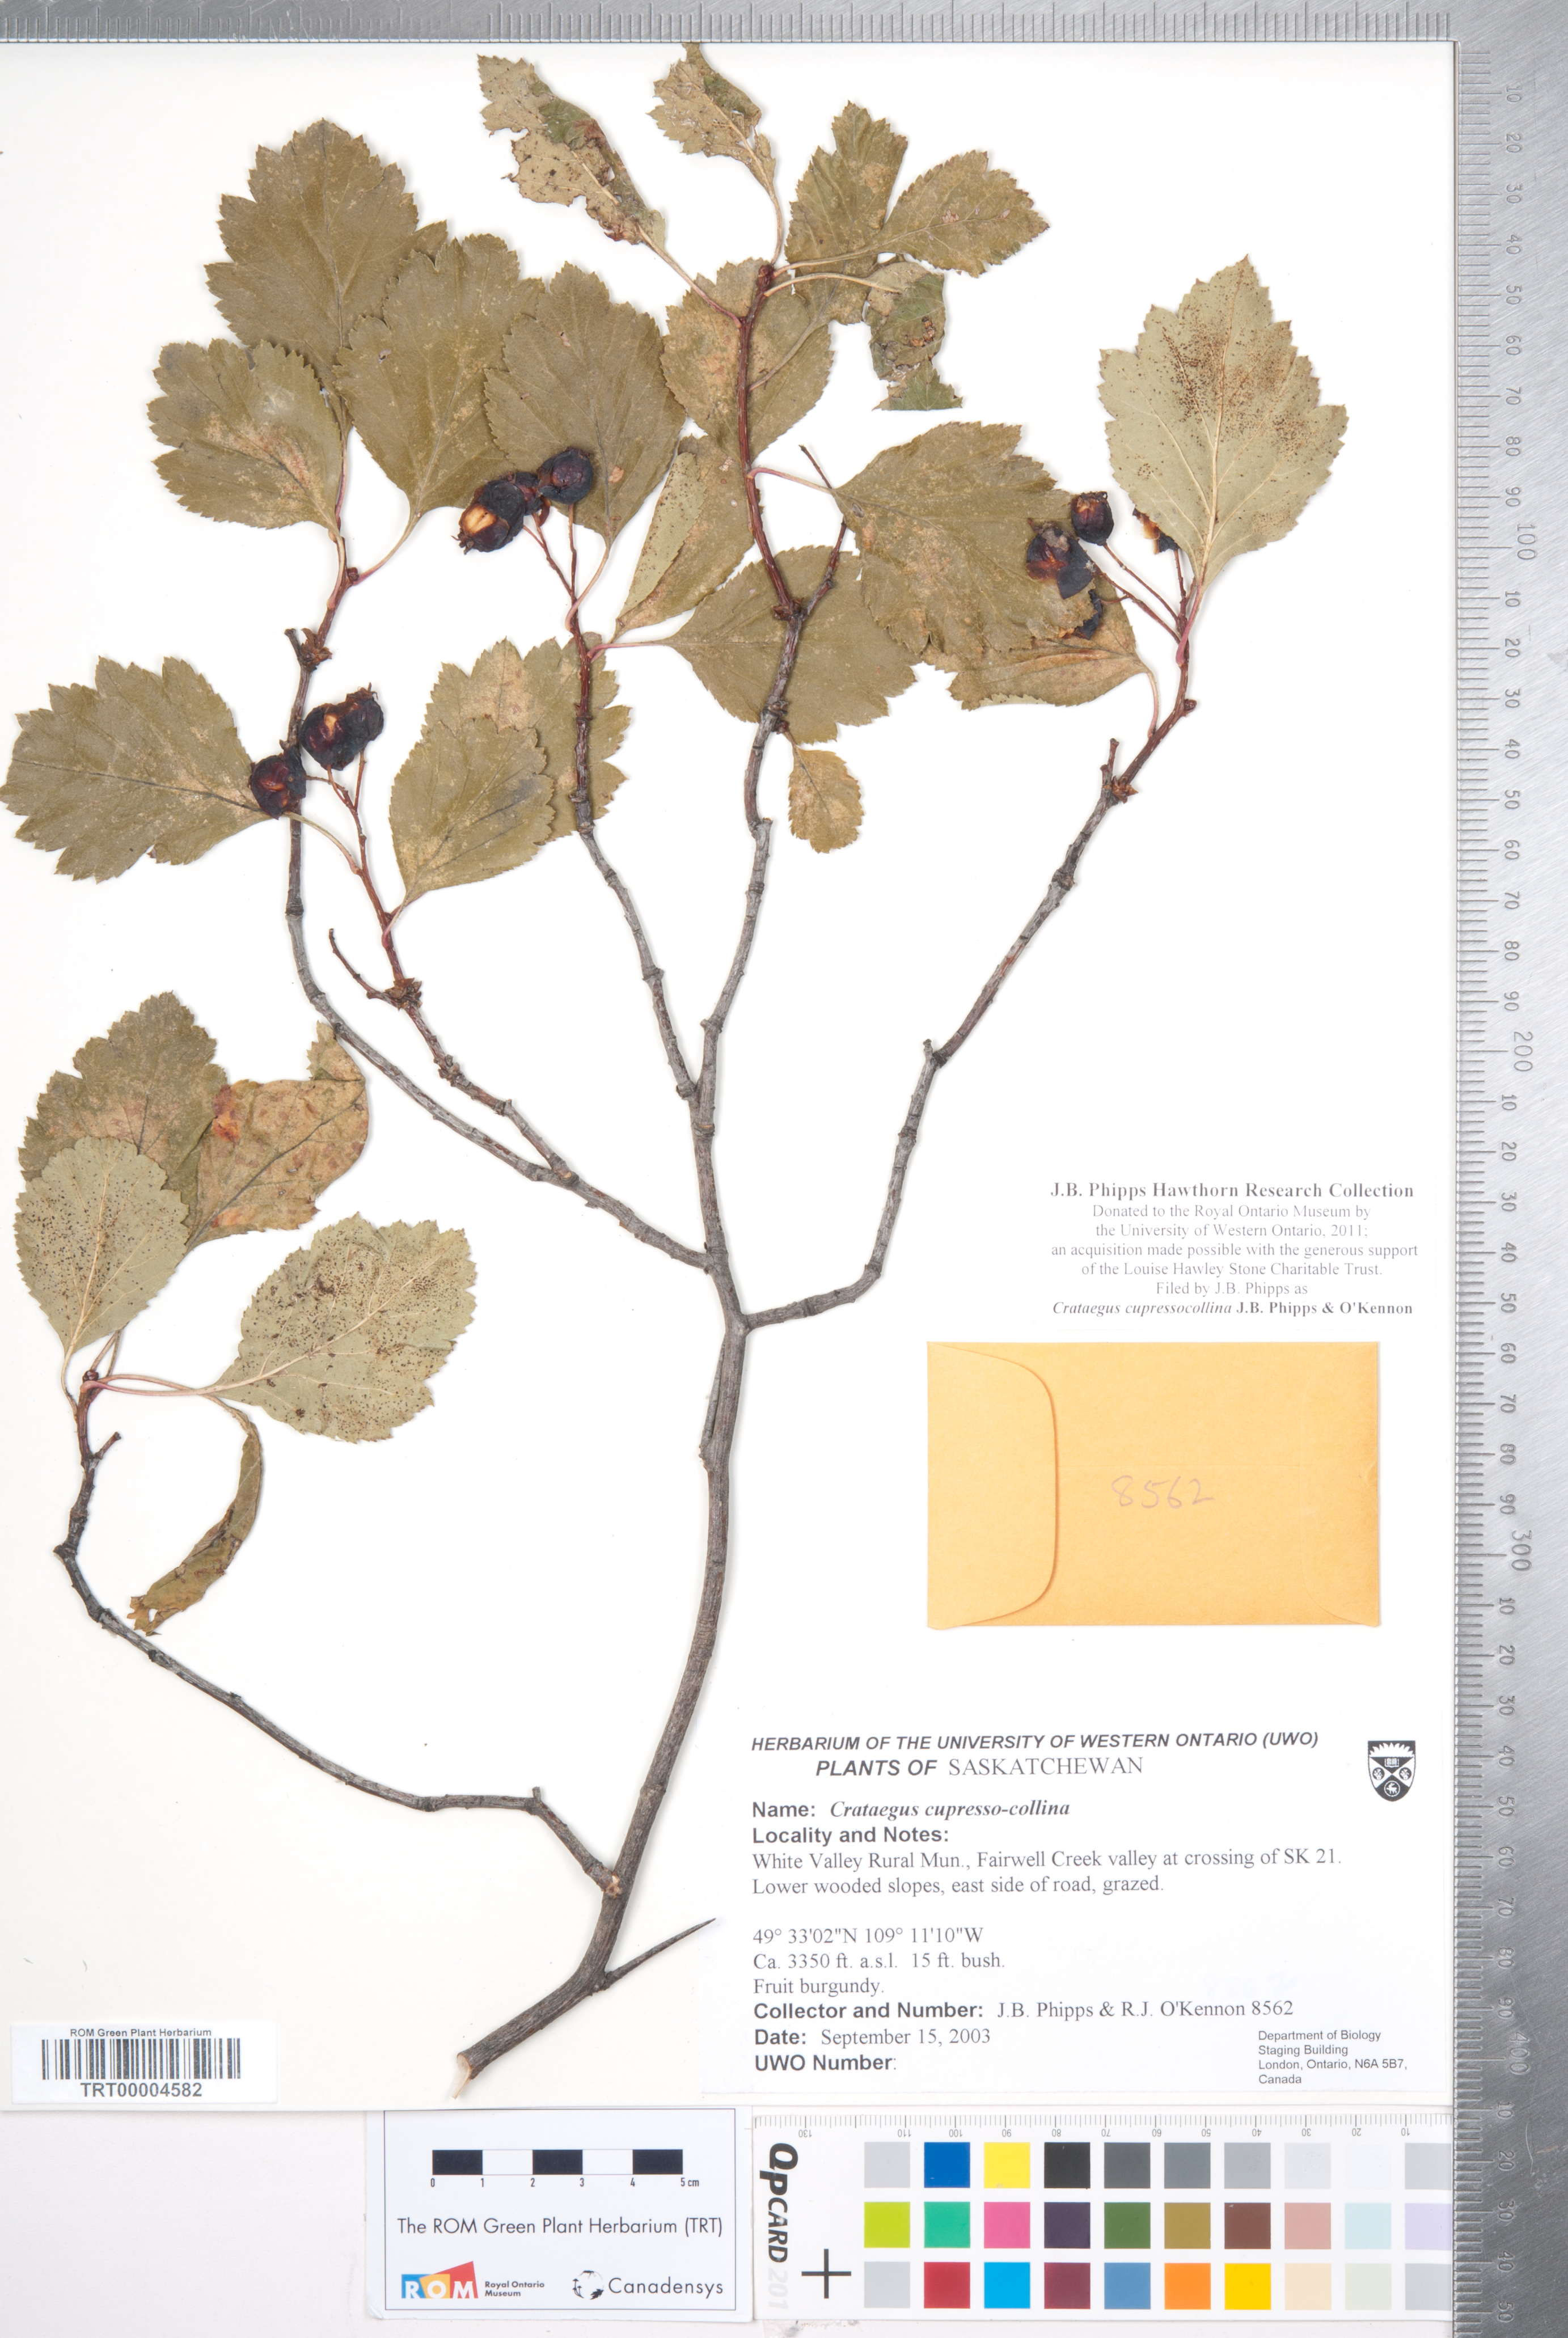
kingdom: Plantae
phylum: Tracheophyta
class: Magnoliopsida
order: Rosales
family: Rosaceae
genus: Crataegus
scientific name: Crataegus cupressocollina
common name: Cypress hills hawthorn
